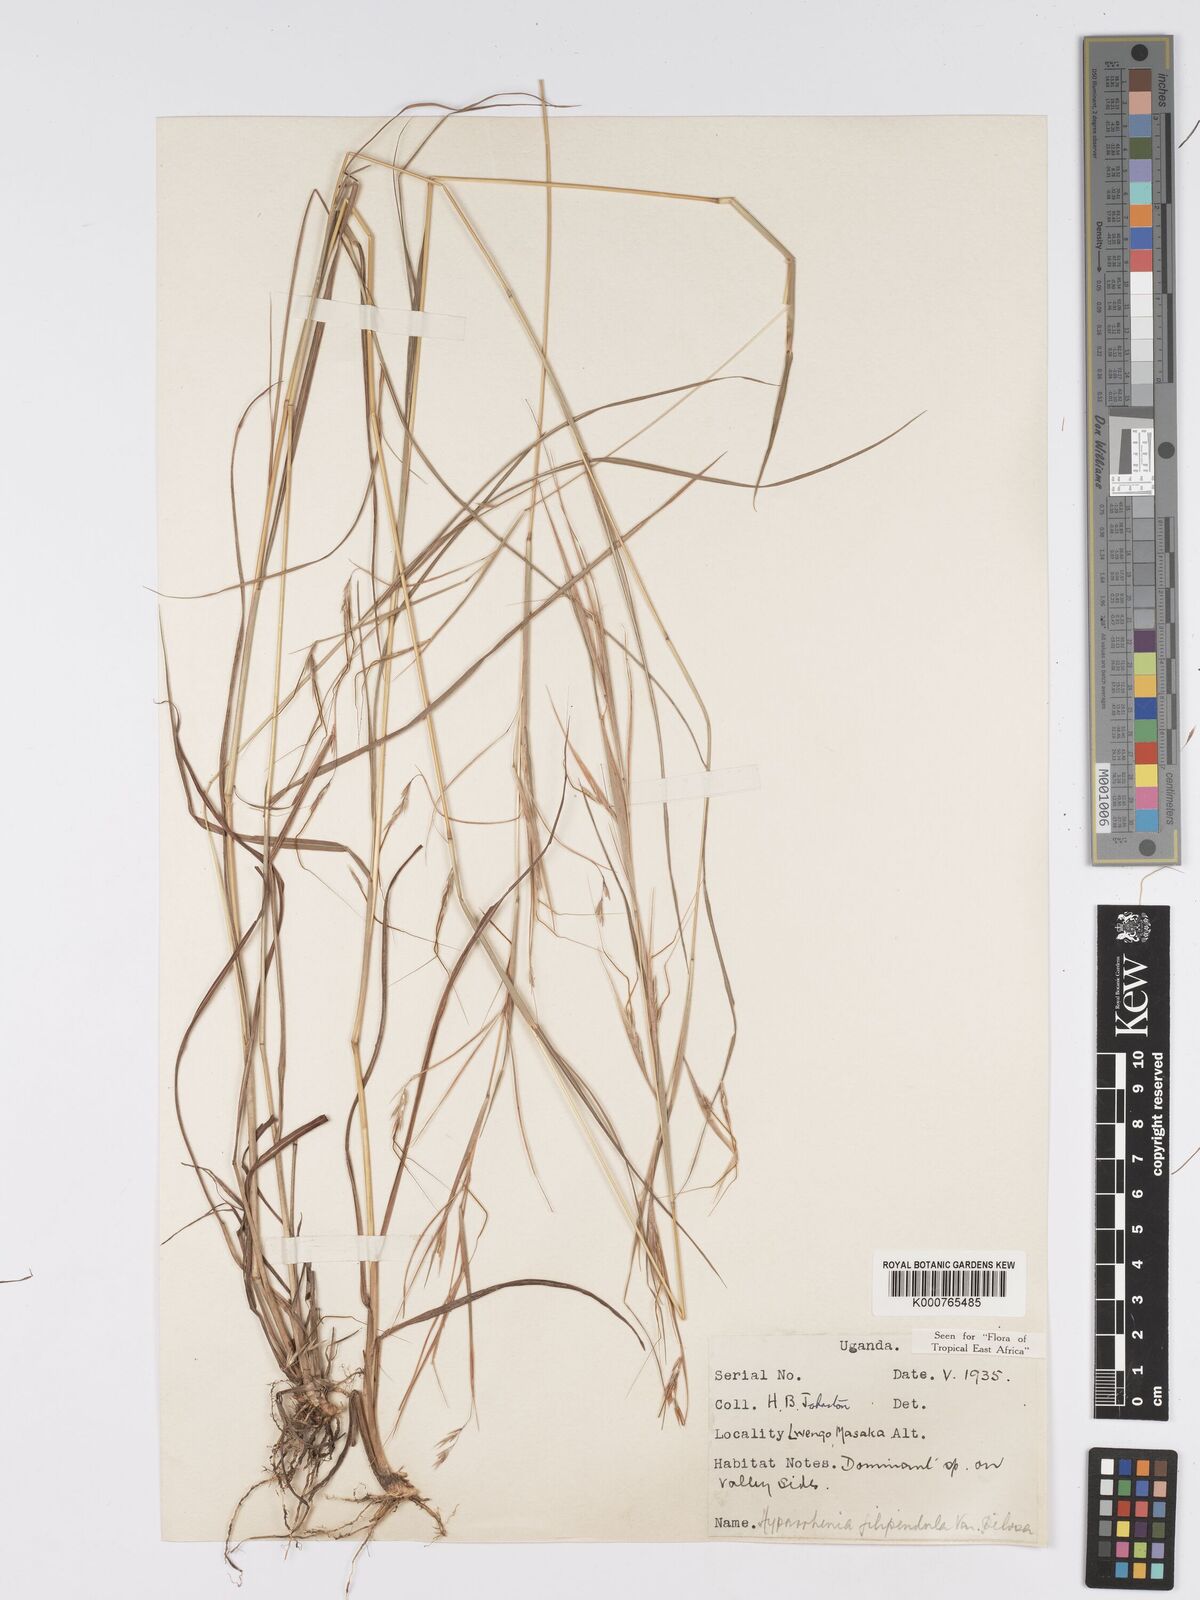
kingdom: Plantae
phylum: Tracheophyta
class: Liliopsida
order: Poales
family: Poaceae
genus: Hyparrhenia
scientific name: Hyparrhenia filipendula
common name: Tambookie grass
